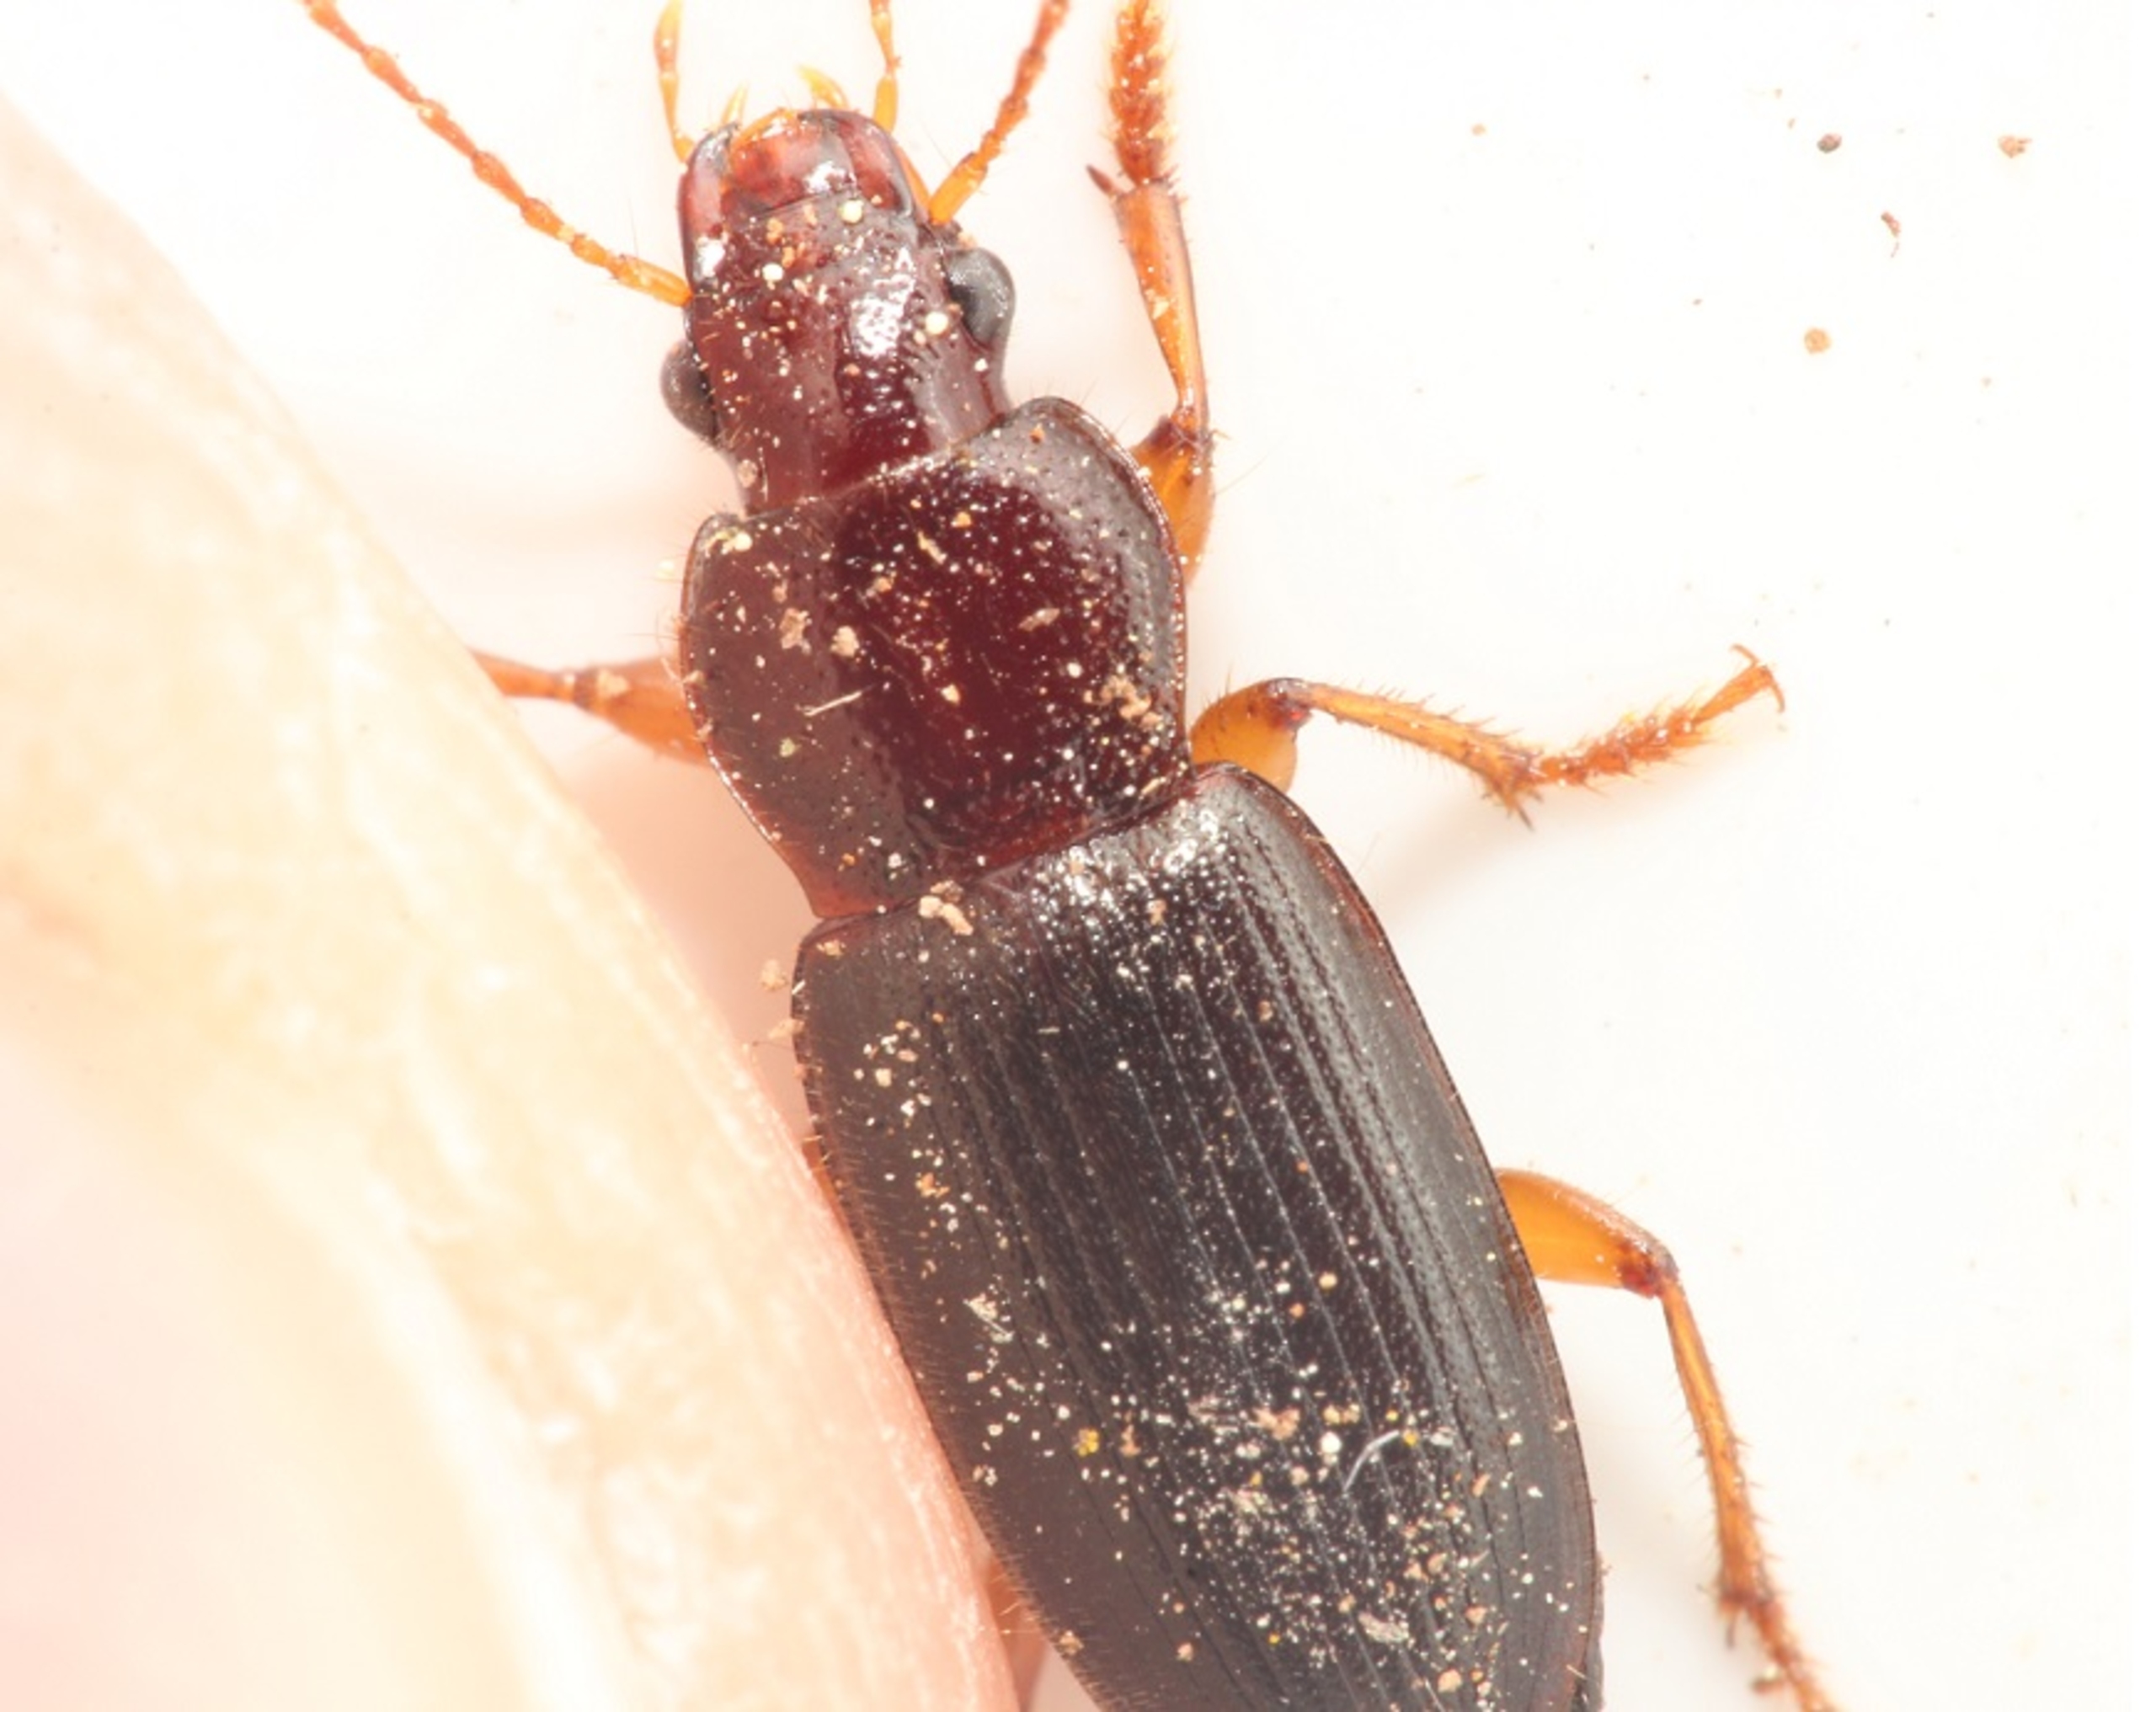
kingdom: Animalia
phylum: Arthropoda
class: Insecta
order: Coleoptera
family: Carabidae
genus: Ophonus
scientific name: Ophonus
